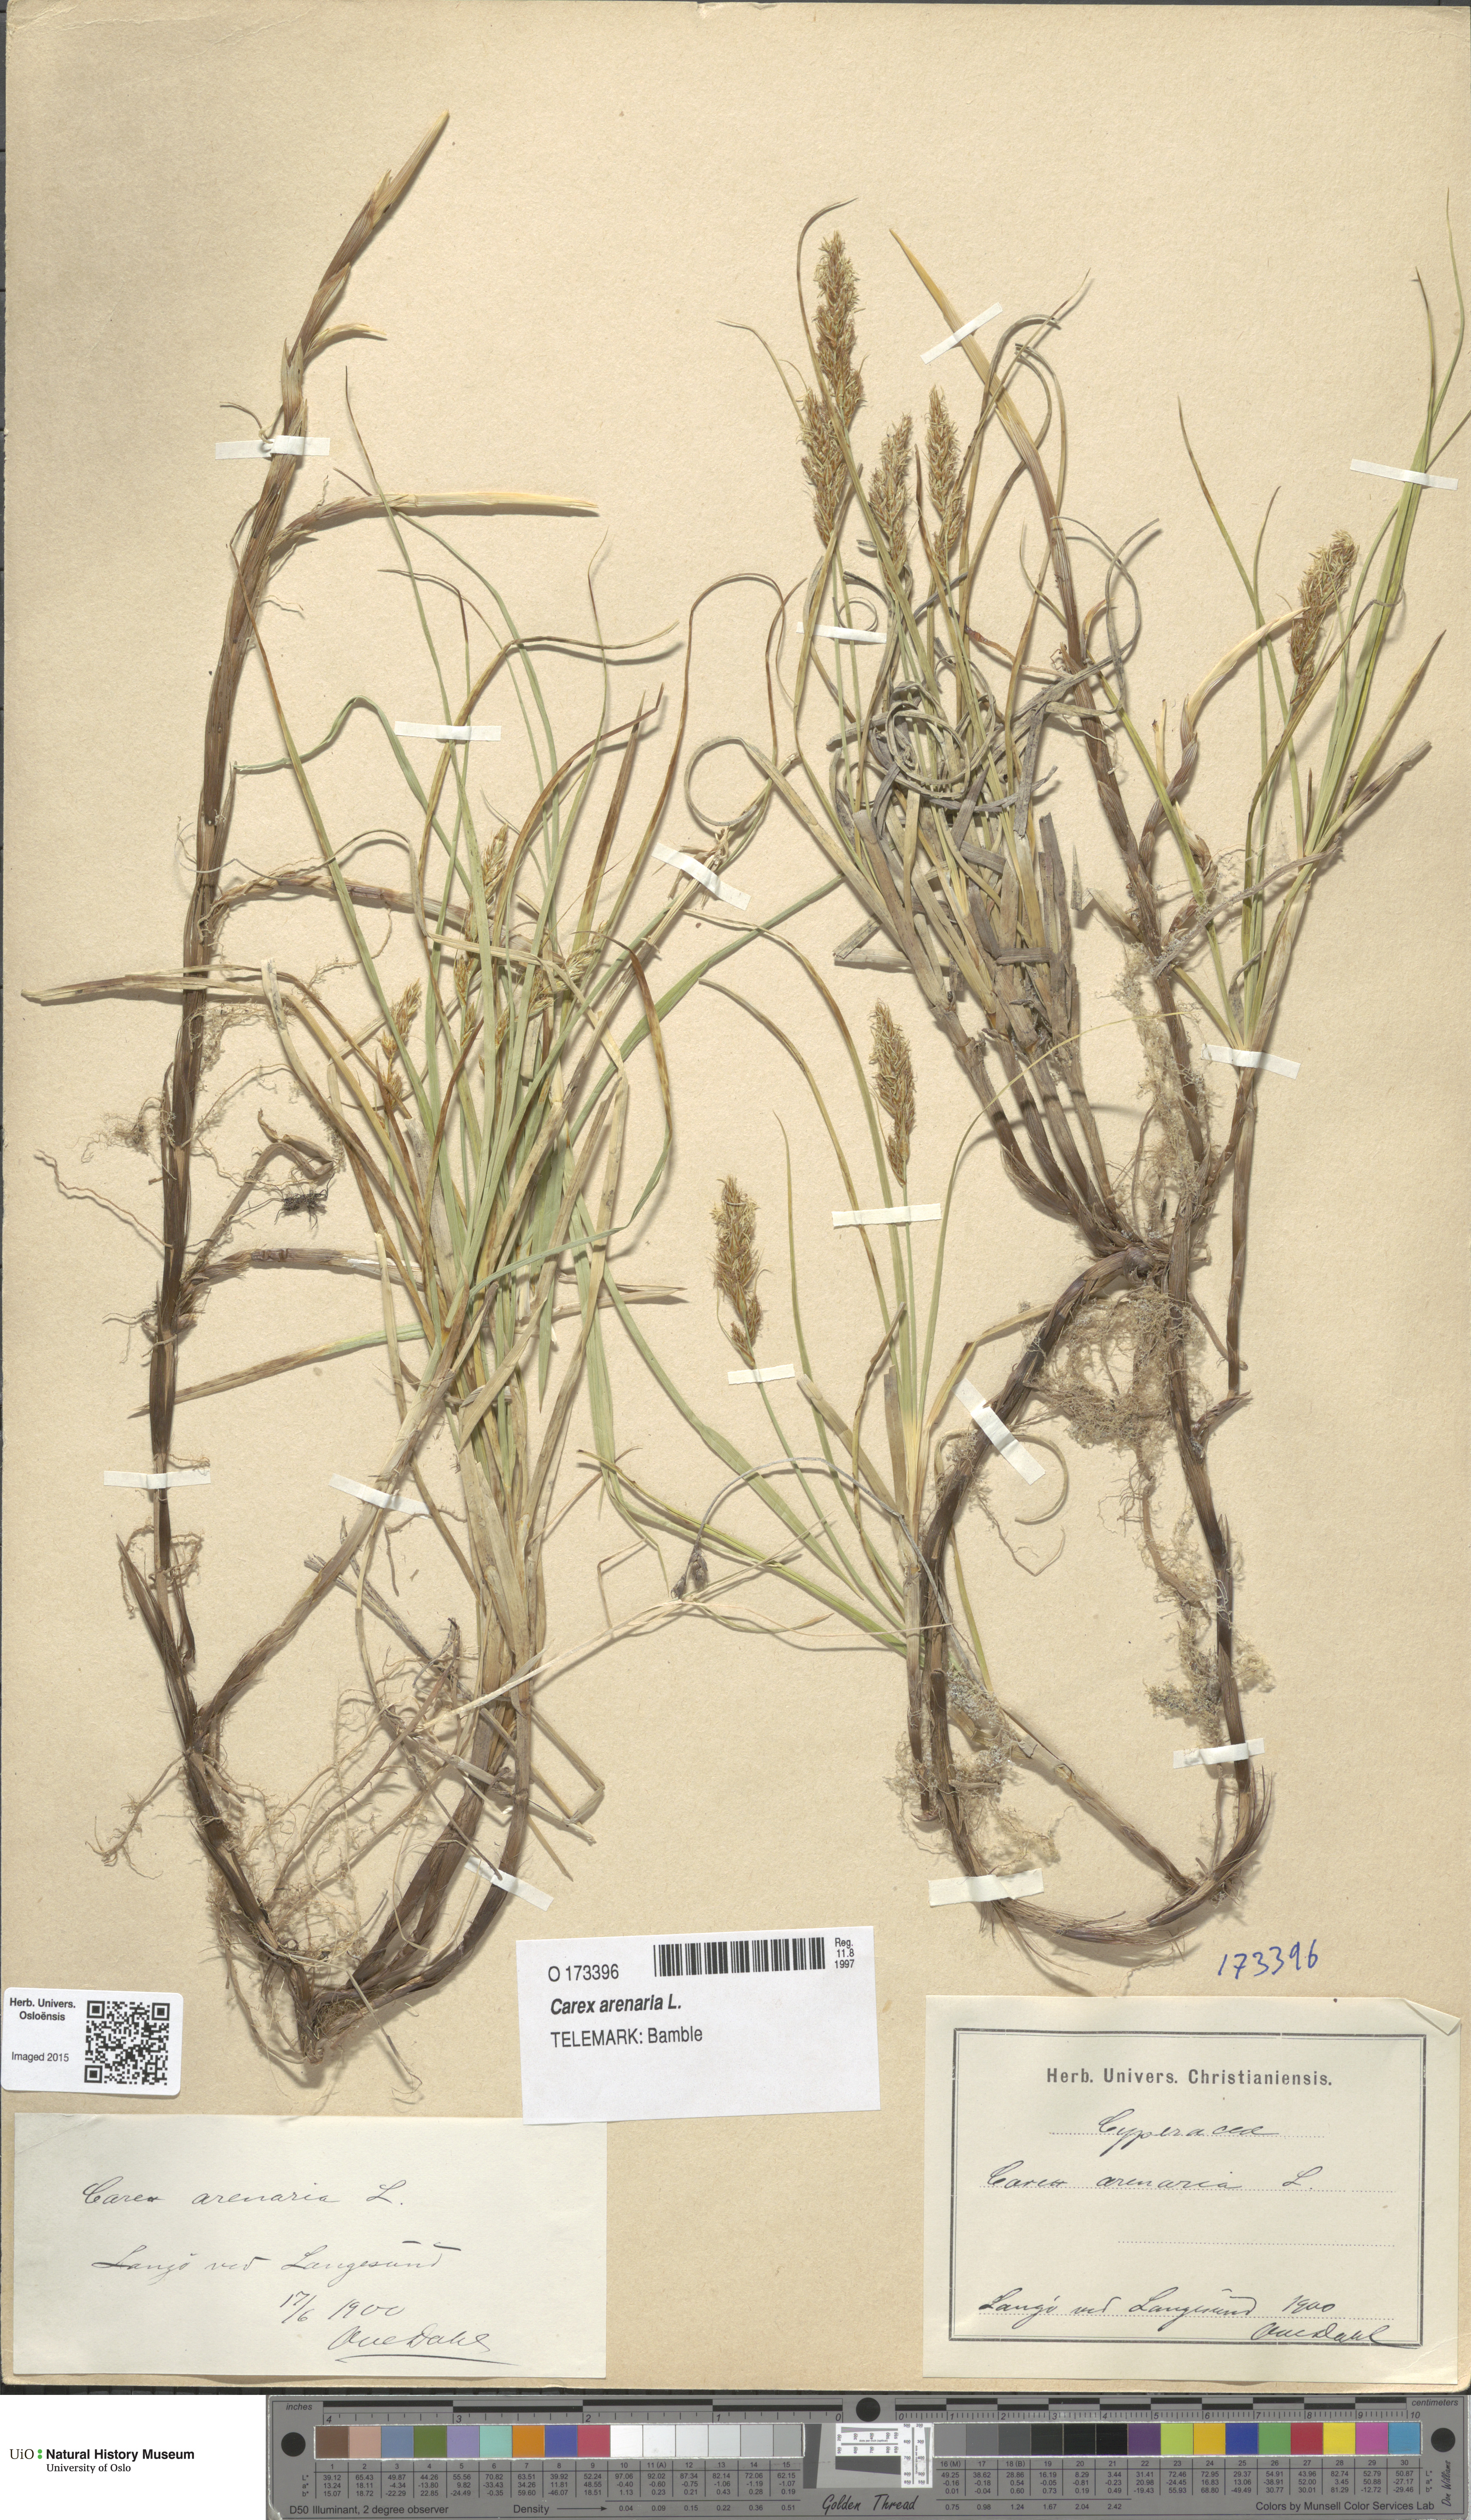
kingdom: Plantae
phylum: Tracheophyta
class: Liliopsida
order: Poales
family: Cyperaceae
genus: Carex
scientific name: Carex arenaria
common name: Sand sedge
